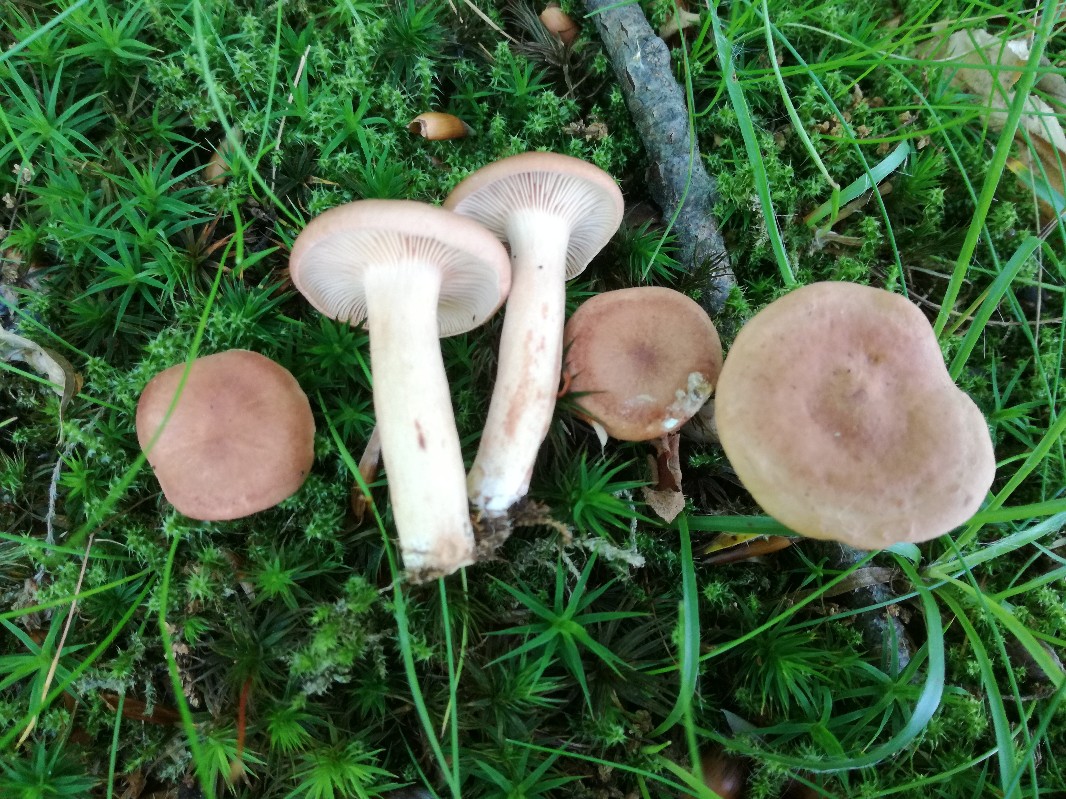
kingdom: Fungi
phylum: Basidiomycota
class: Agaricomycetes
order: Russulales
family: Russulaceae
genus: Lactarius
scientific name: Lactarius decipiens
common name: pelargonie-mælkehat
